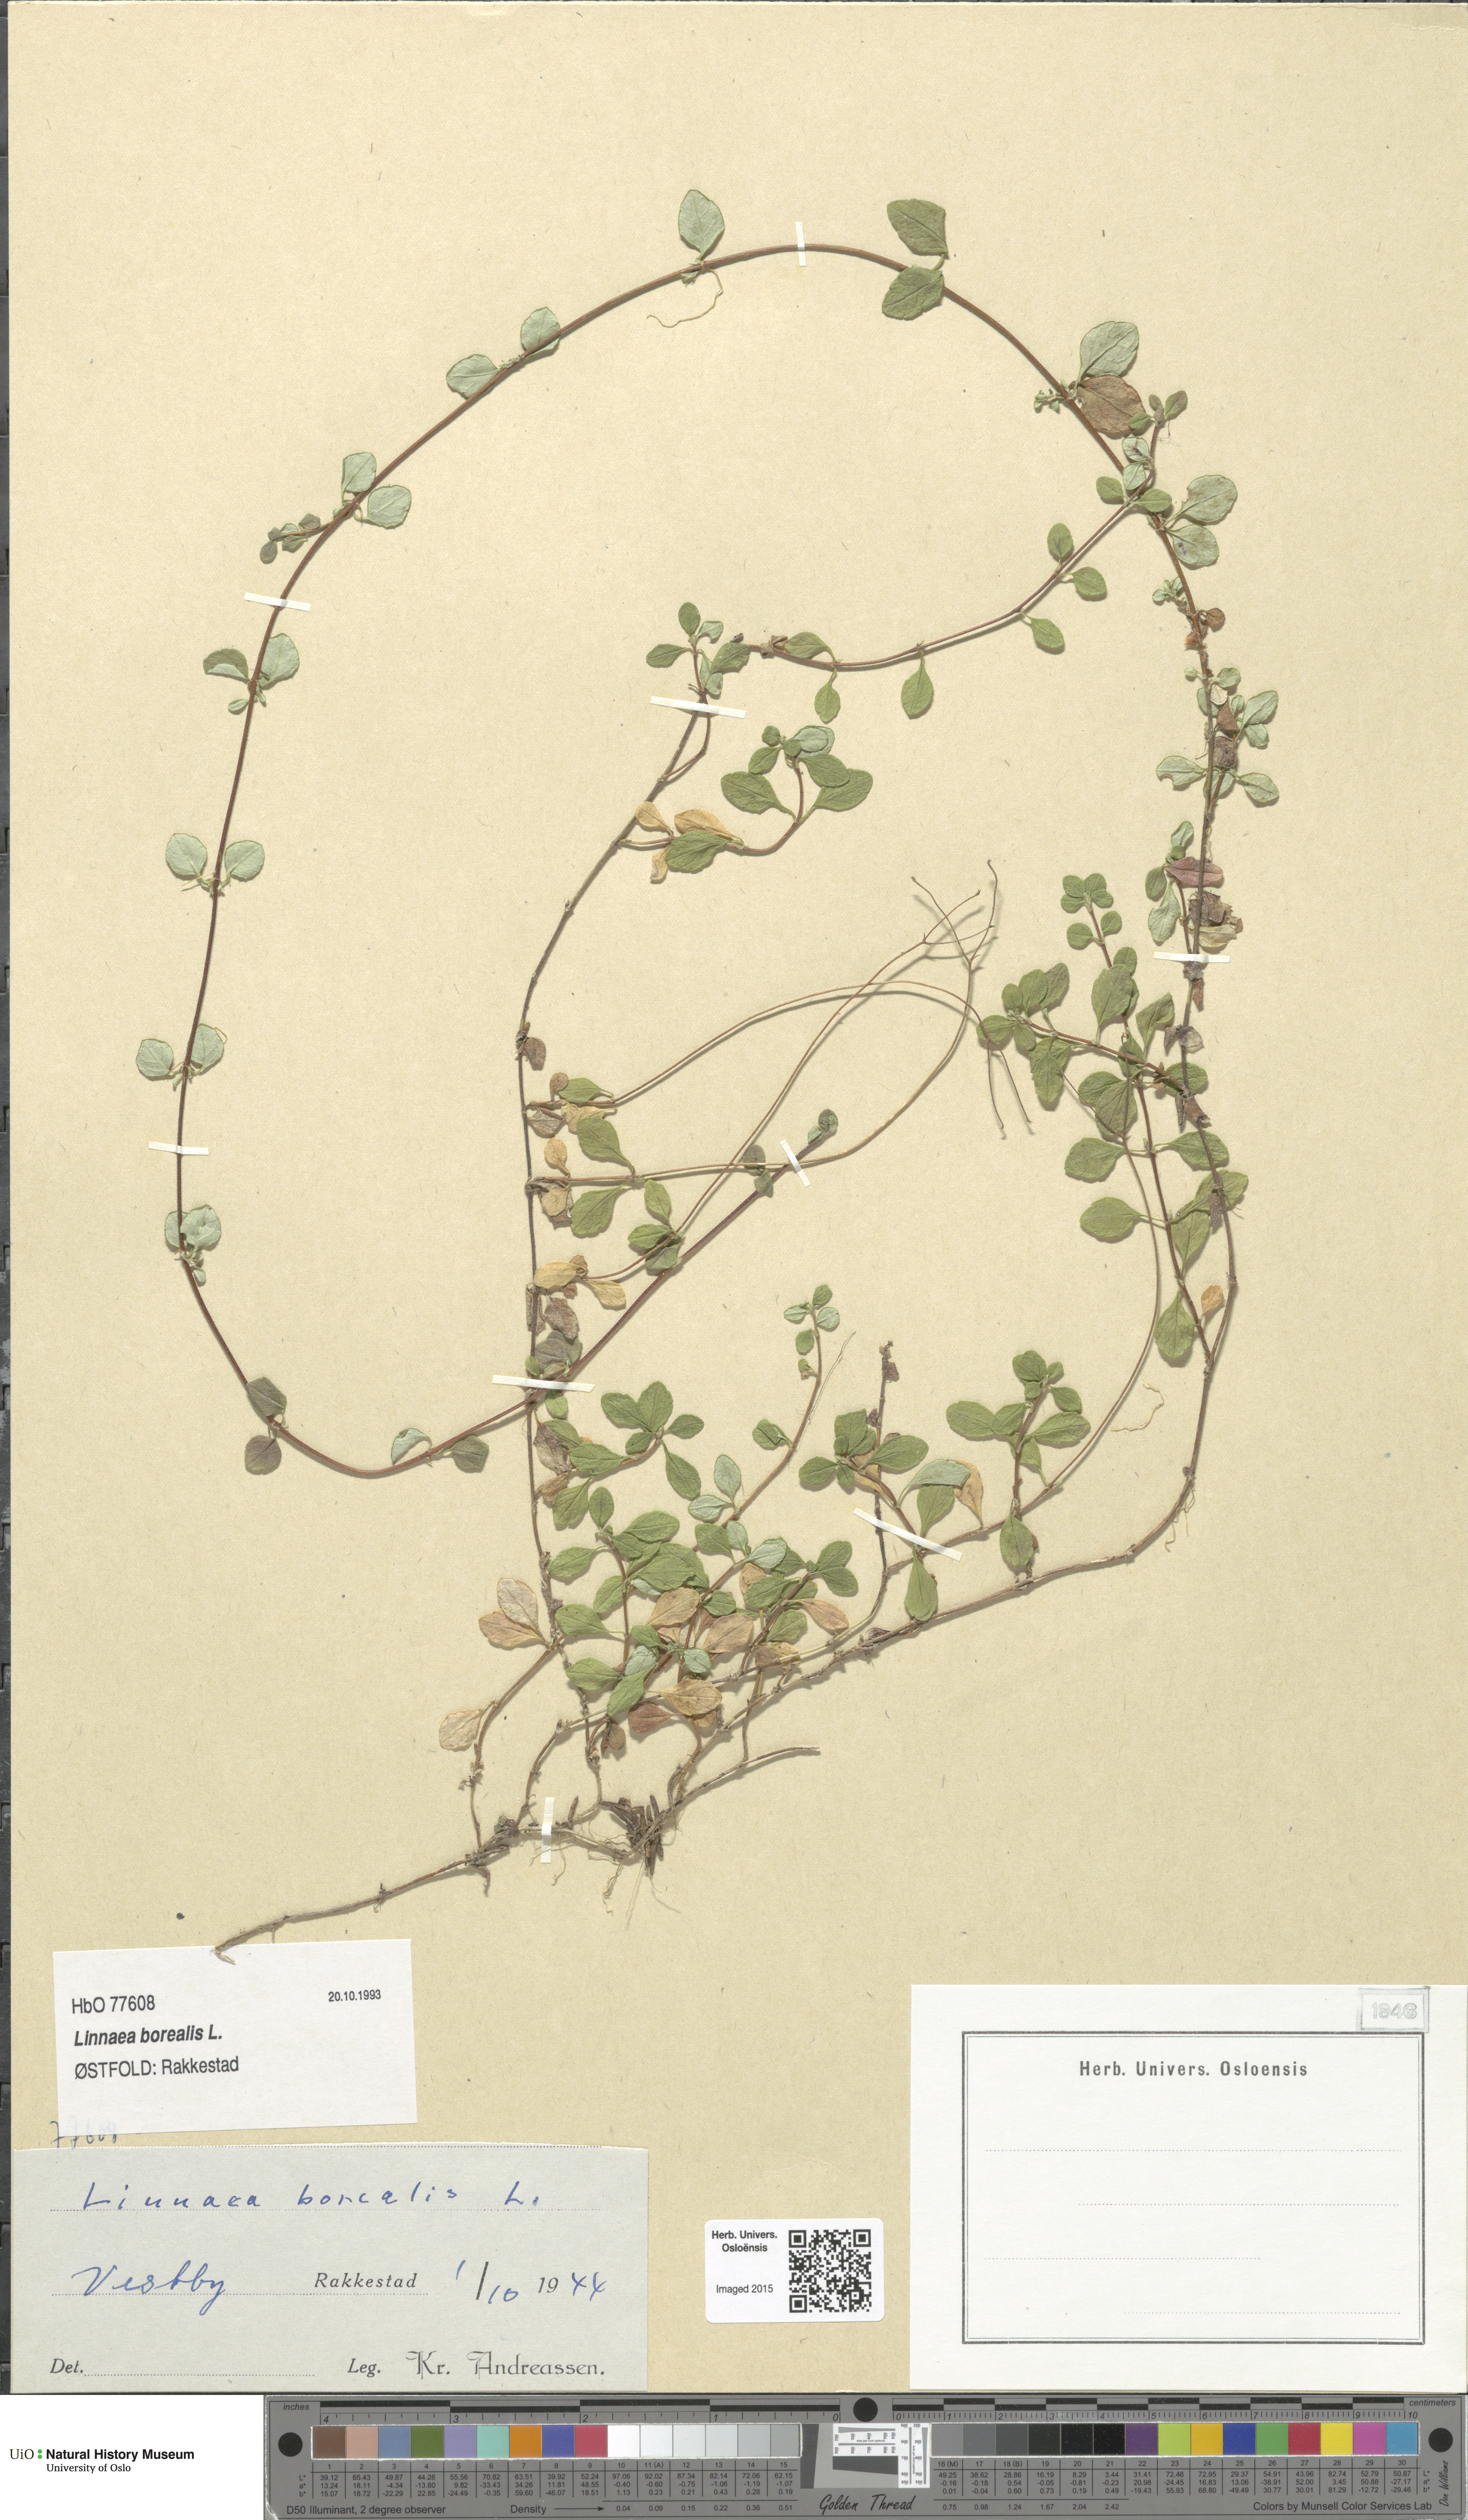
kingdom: Plantae
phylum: Tracheophyta
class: Magnoliopsida
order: Dipsacales
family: Caprifoliaceae
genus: Linnaea
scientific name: Linnaea borealis
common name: Twinflower
